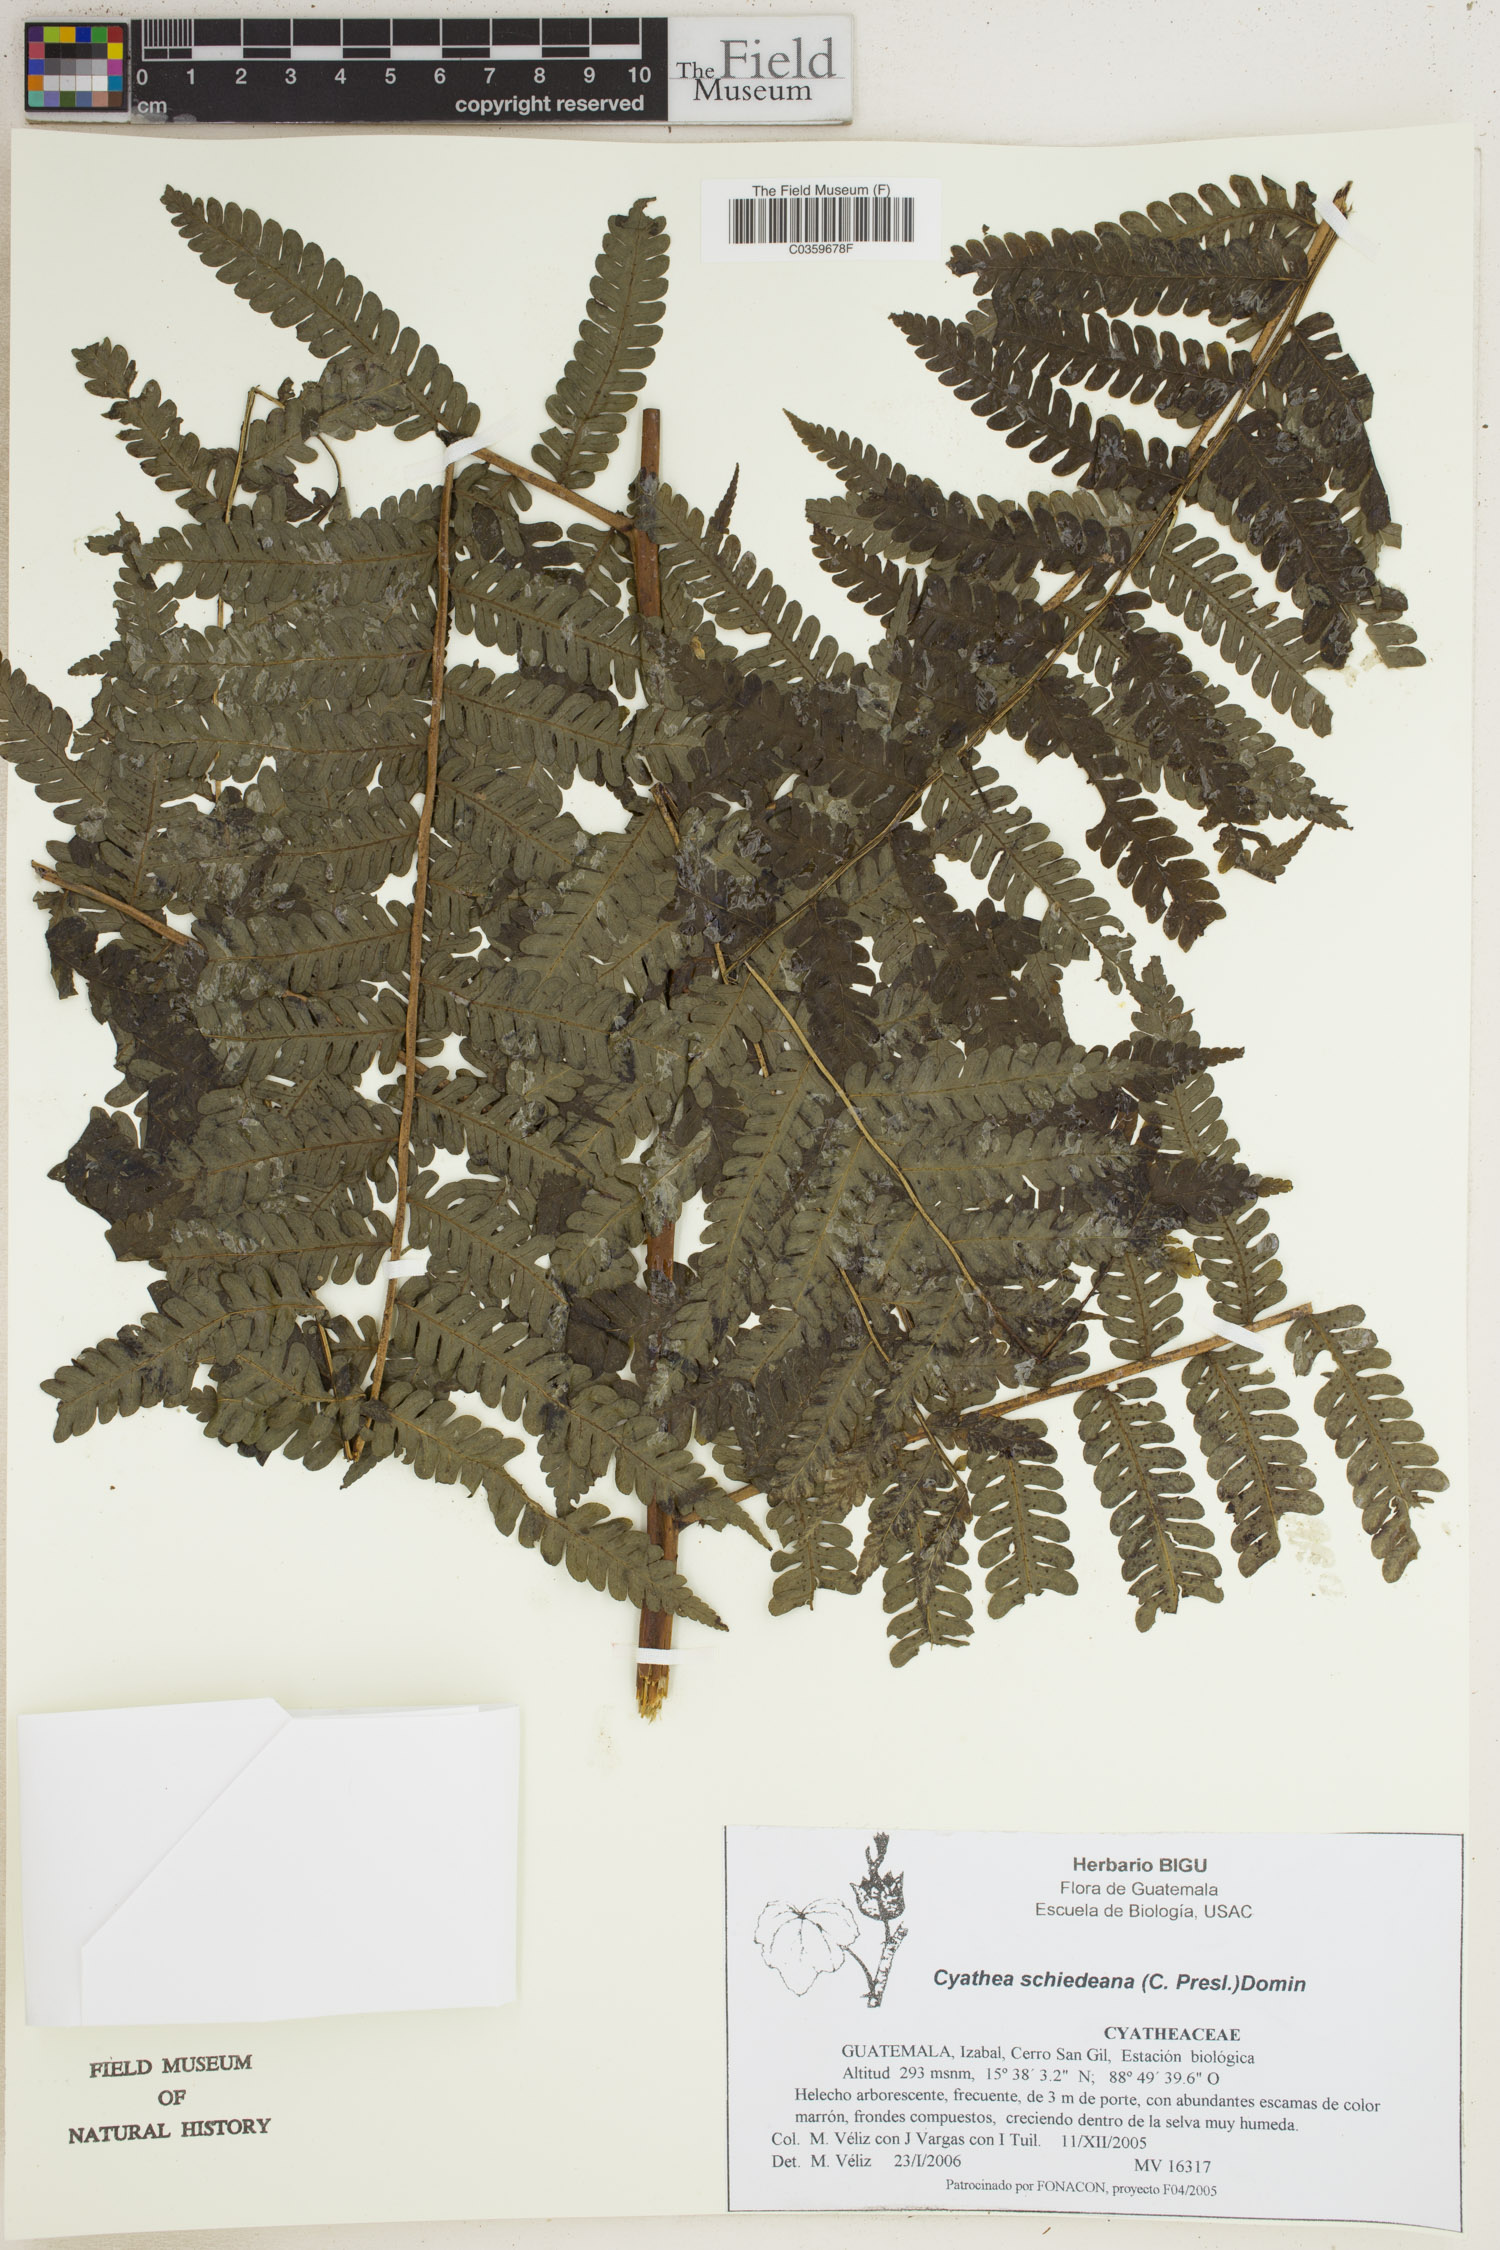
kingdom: Plantae
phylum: Tracheophyta
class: Polypodiopsida
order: Cyatheales
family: Cyatheaceae
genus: Cyathea
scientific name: Cyathea schiedeana
